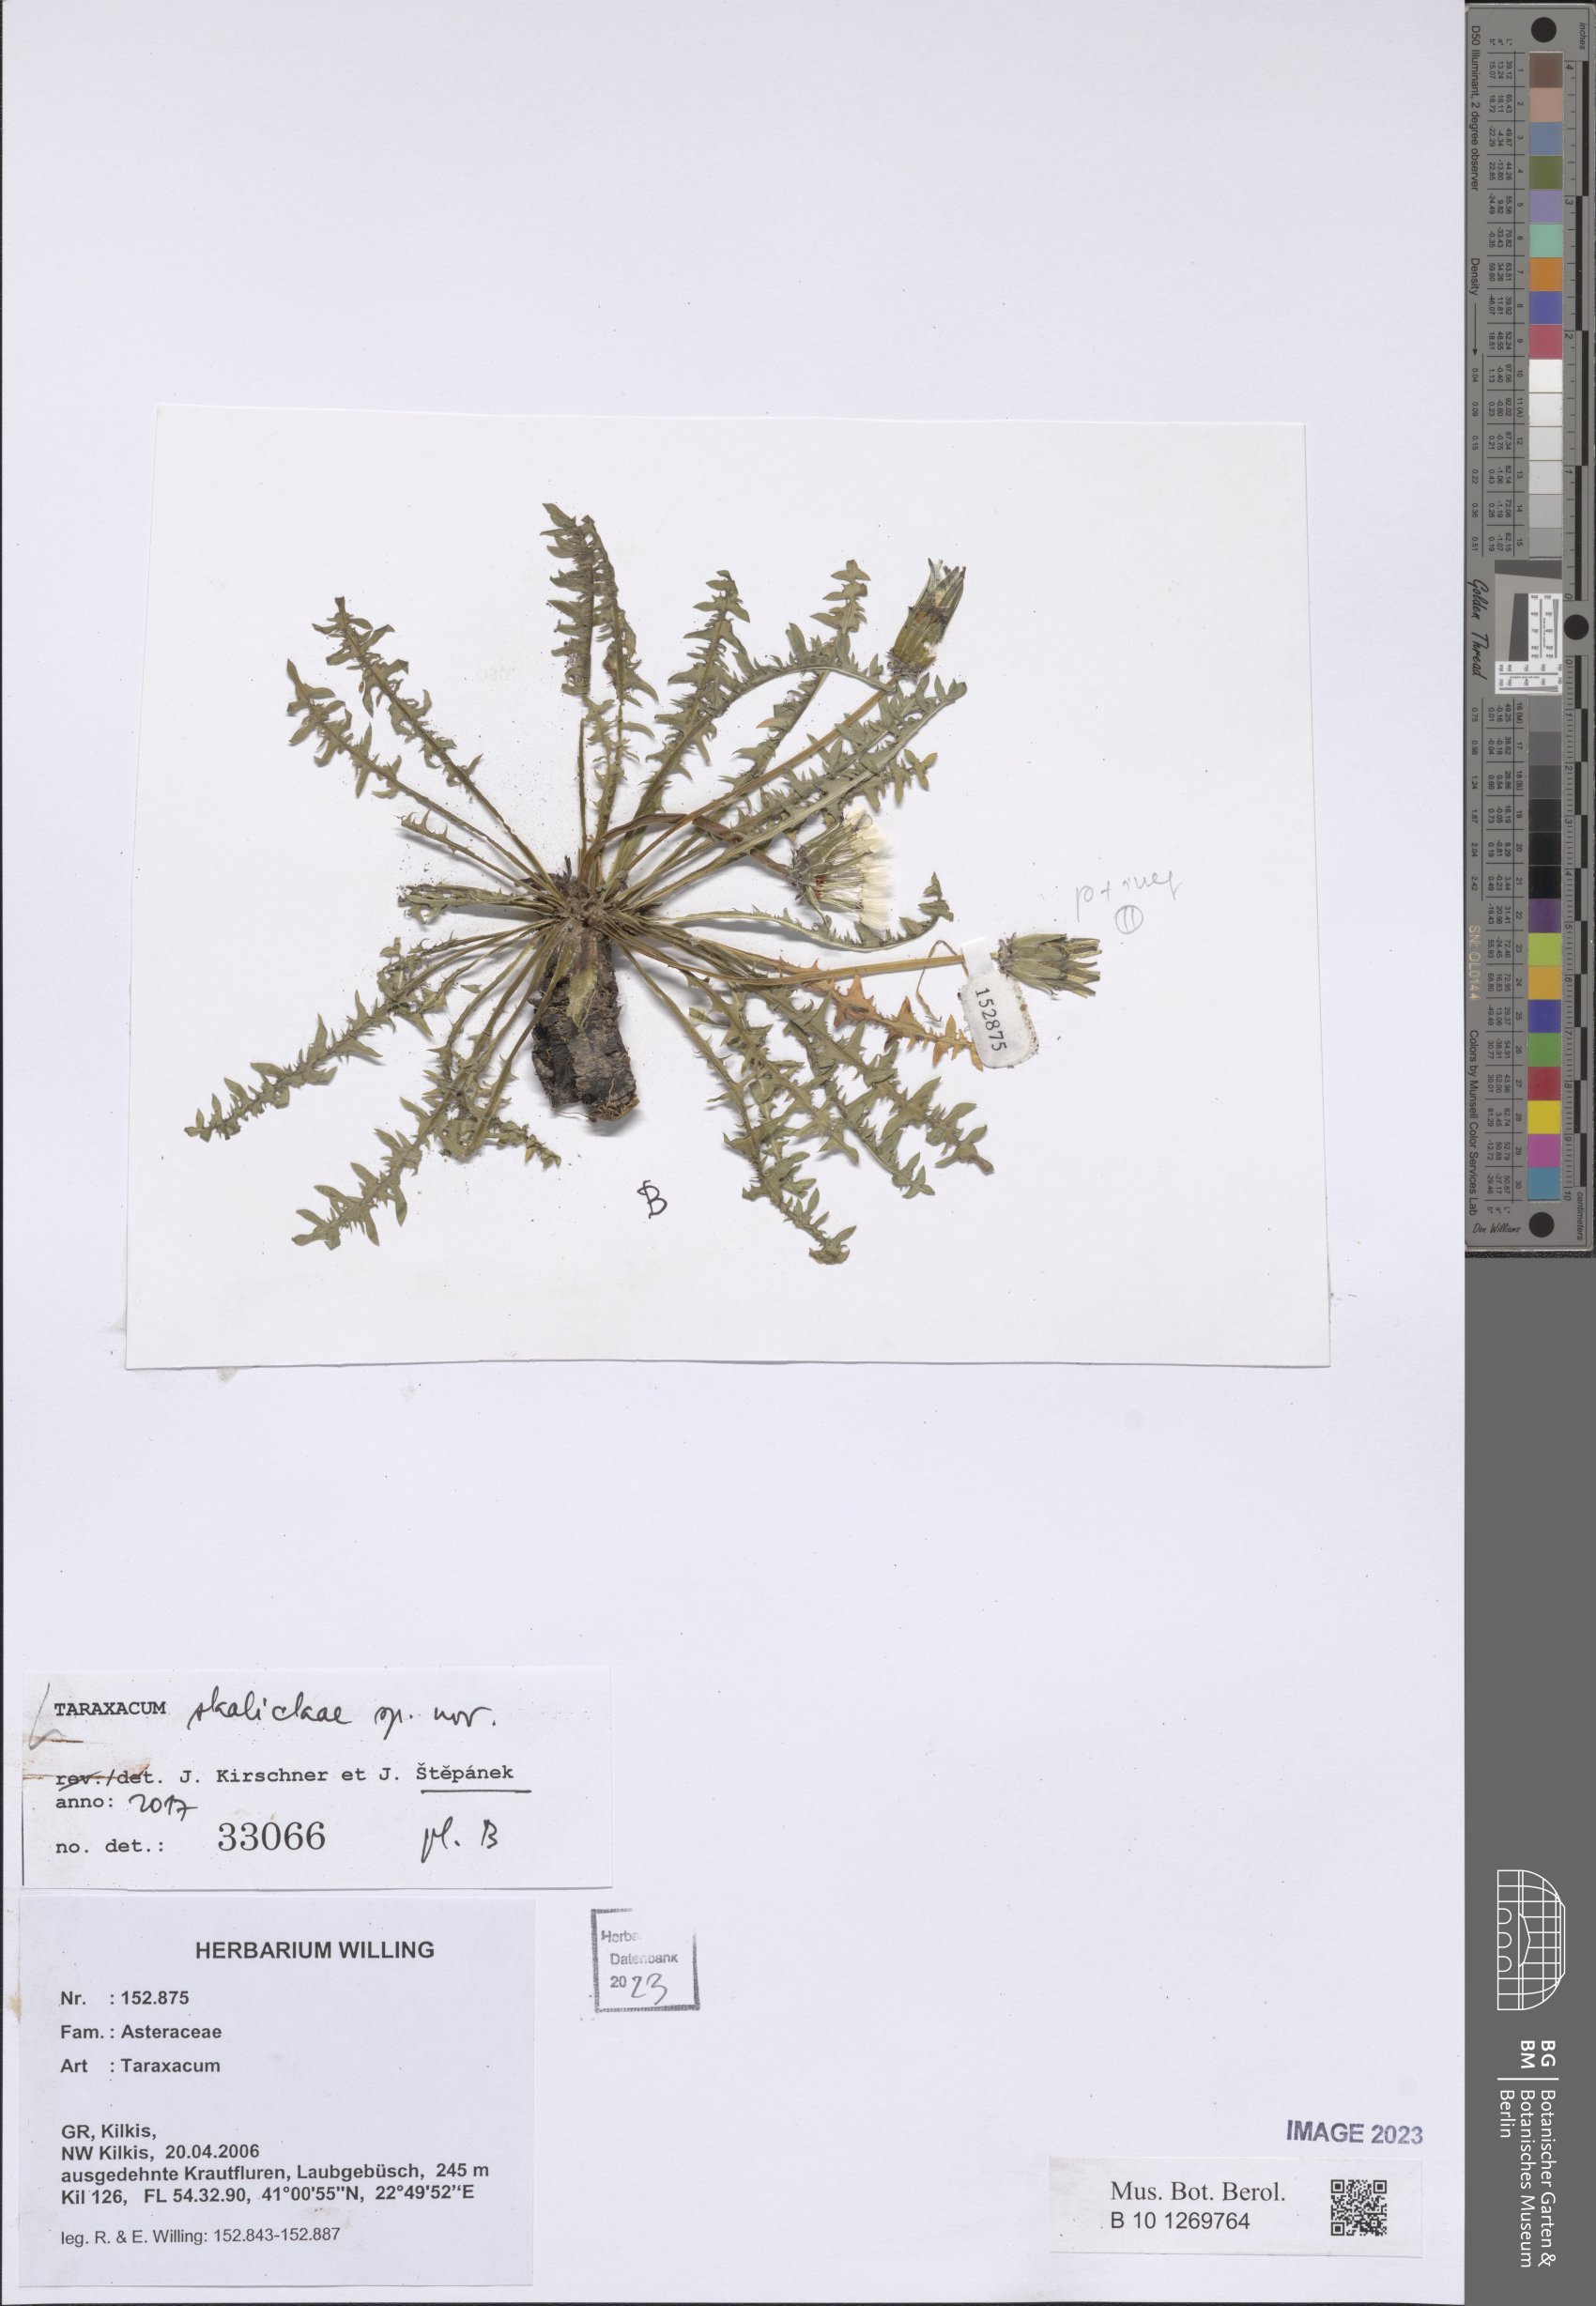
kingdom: Plantae
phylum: Tracheophyta
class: Magnoliopsida
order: Asterales
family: Asteraceae
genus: Taraxacum
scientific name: Taraxacum
